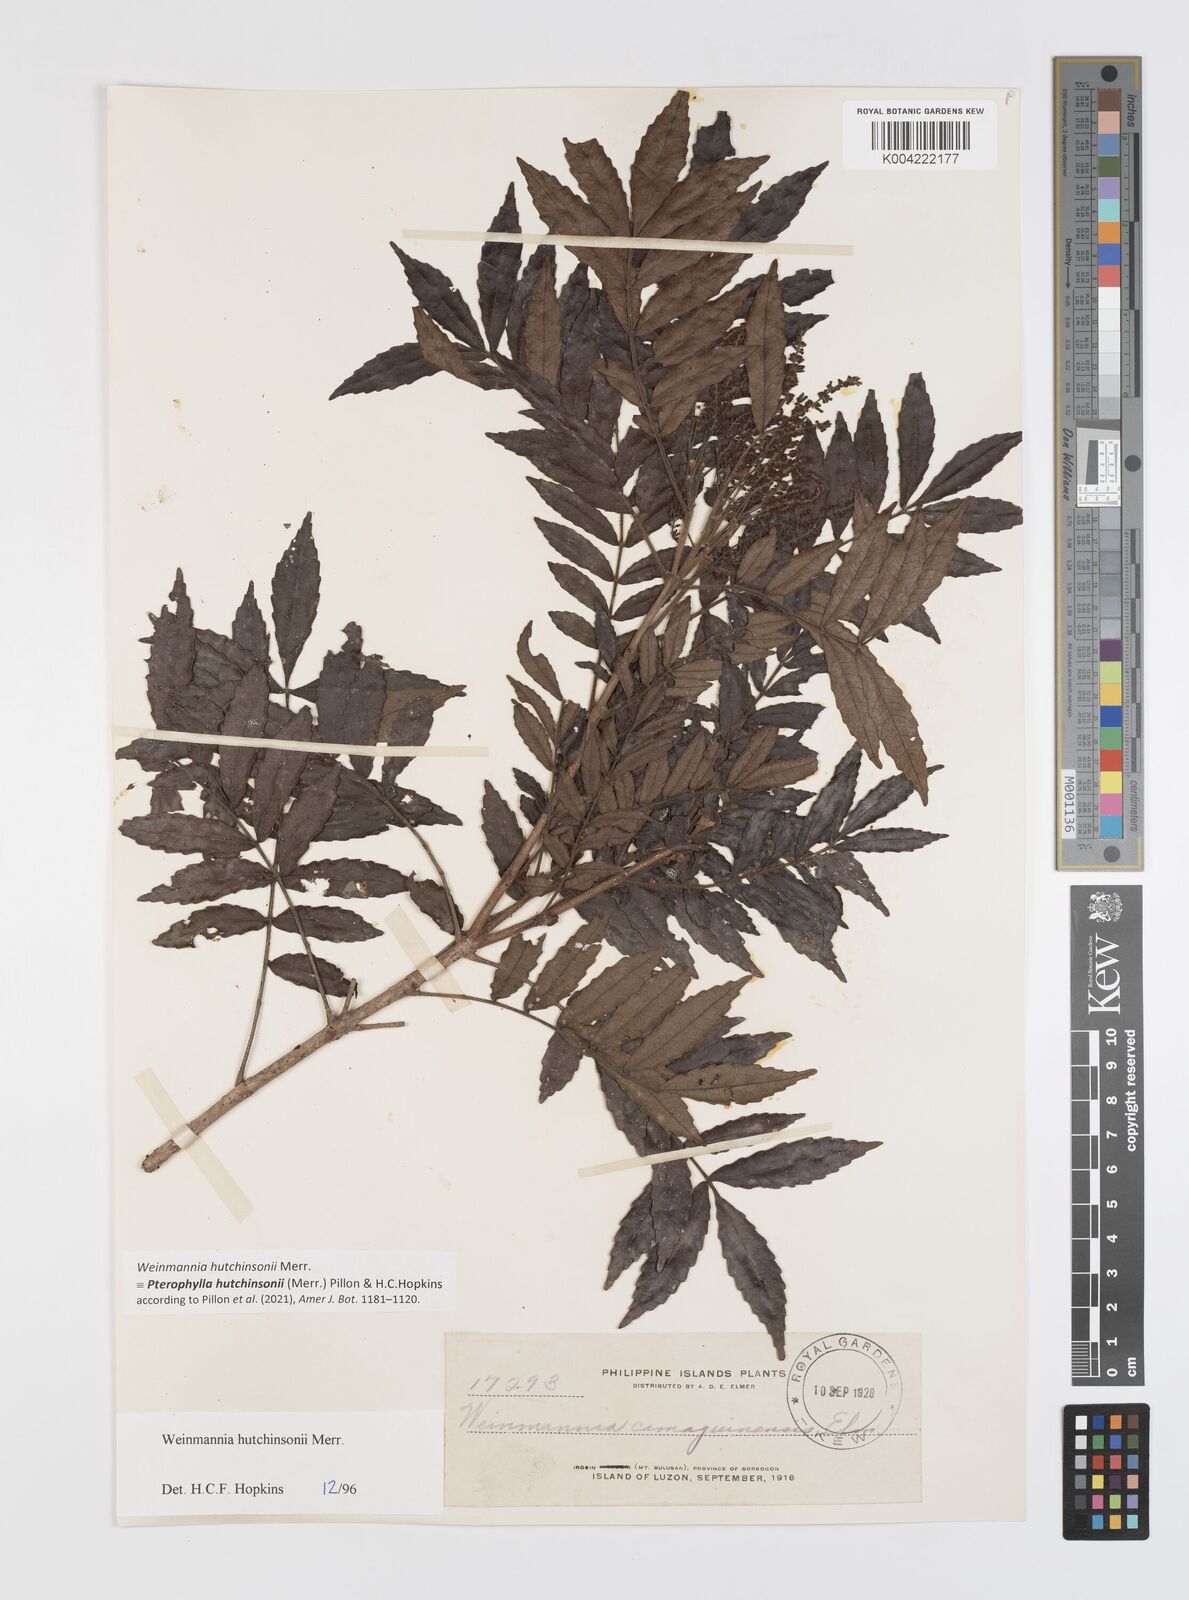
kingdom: Plantae
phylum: Tracheophyta
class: Magnoliopsida
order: Oxalidales
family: Cunoniaceae
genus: Pterophylla
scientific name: Pterophylla hutchinsonii
